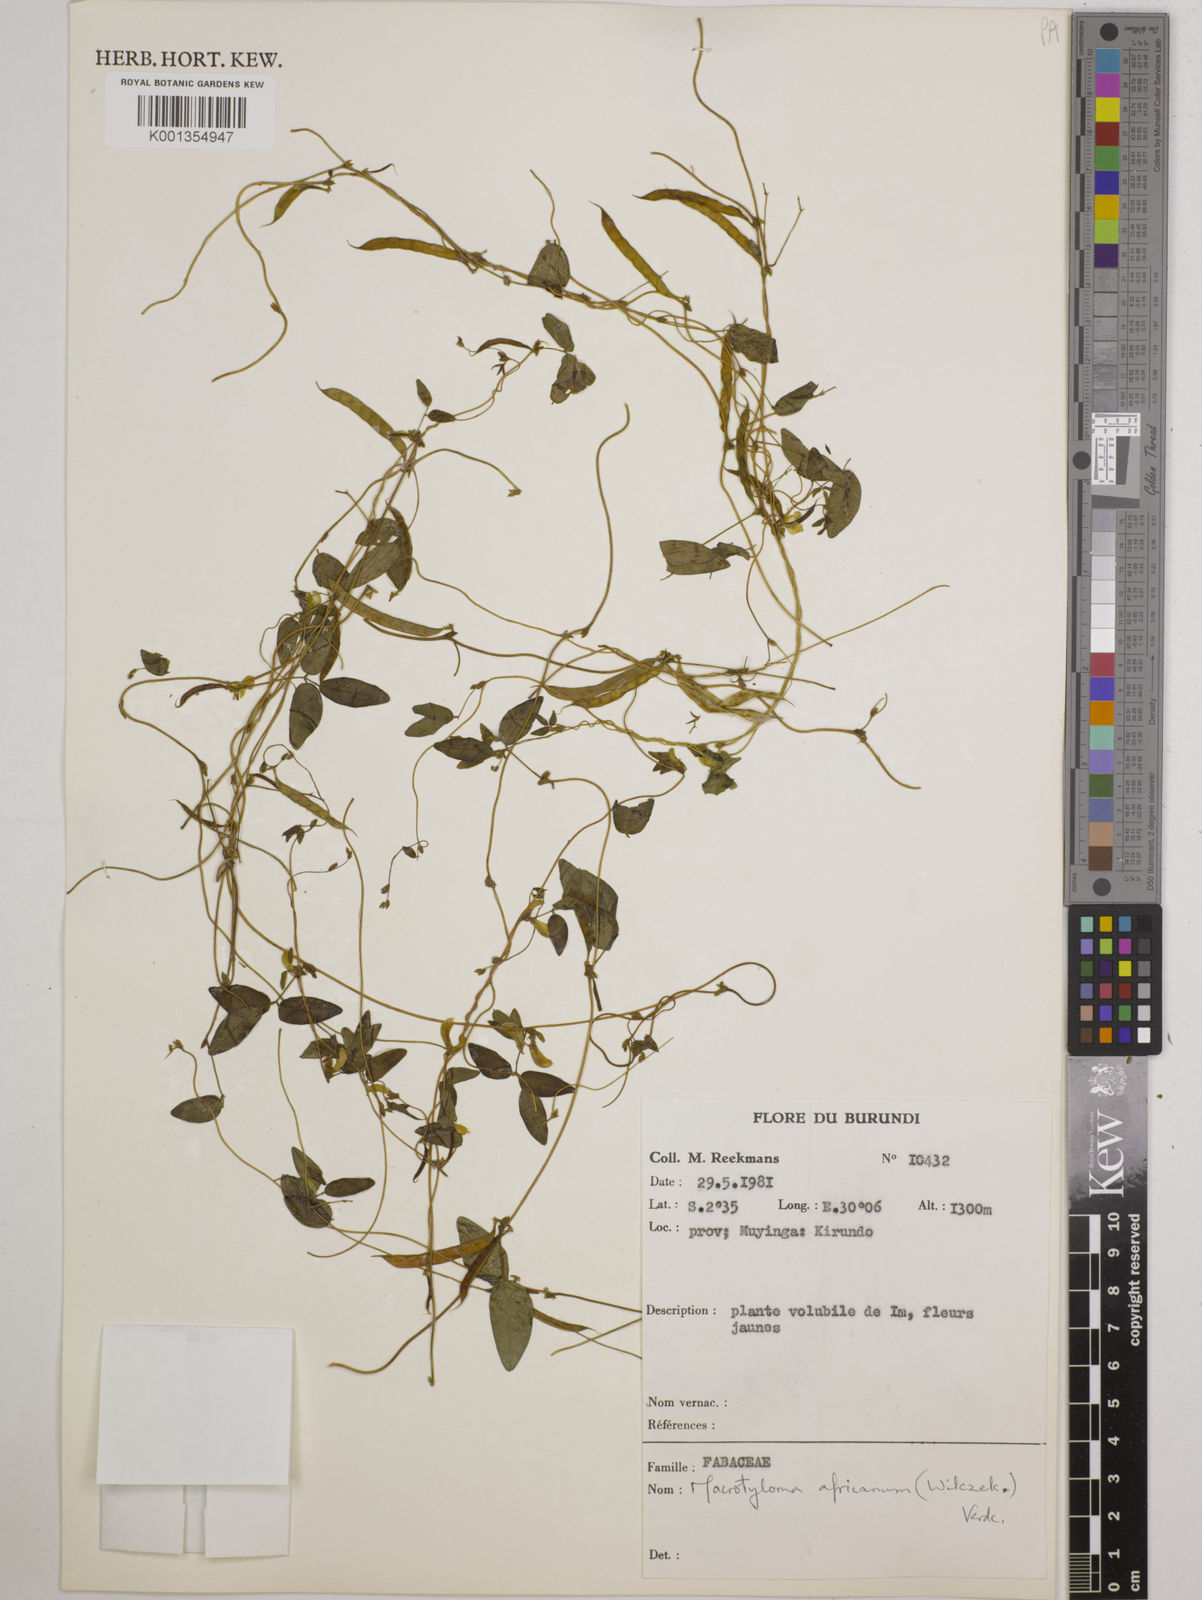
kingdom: Plantae
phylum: Tracheophyta
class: Magnoliopsida
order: Fabales
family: Fabaceae
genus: Macrotyloma
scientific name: Macrotyloma africanum
